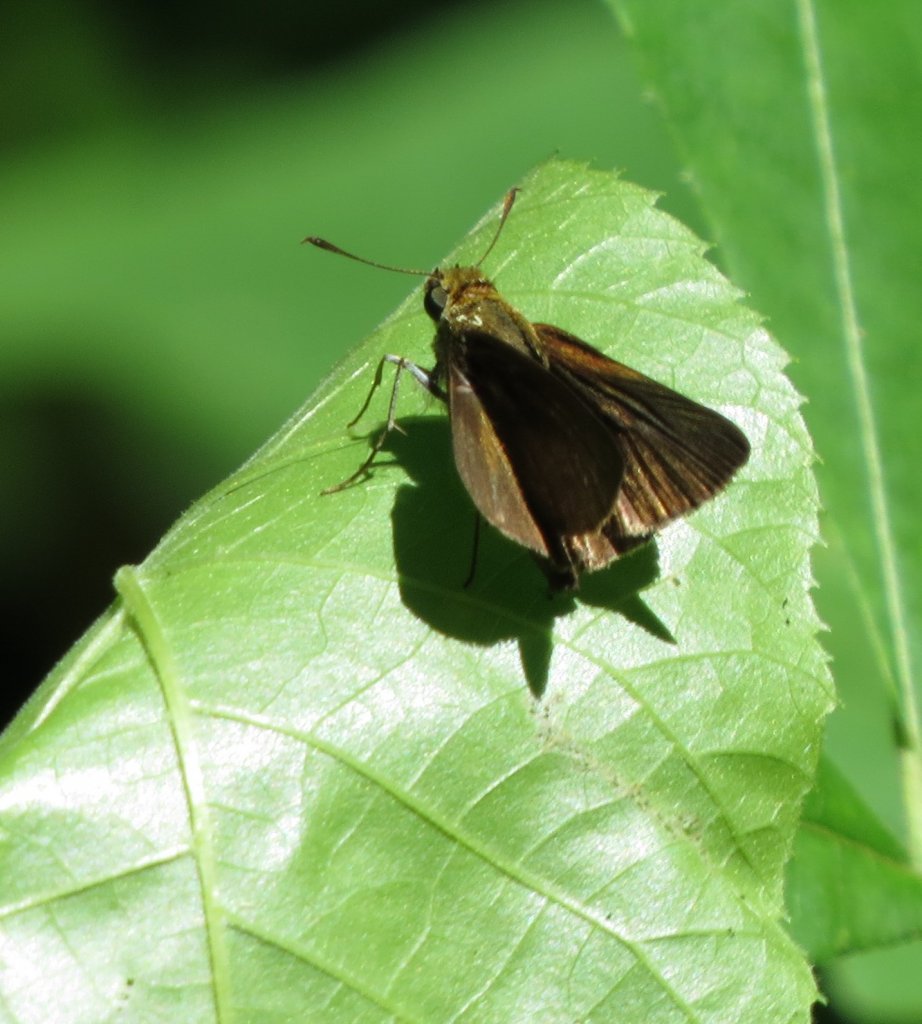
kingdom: Animalia
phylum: Arthropoda
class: Insecta
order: Lepidoptera
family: Hesperiidae
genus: Euphyes
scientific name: Euphyes vestris
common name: Dun Skipper
